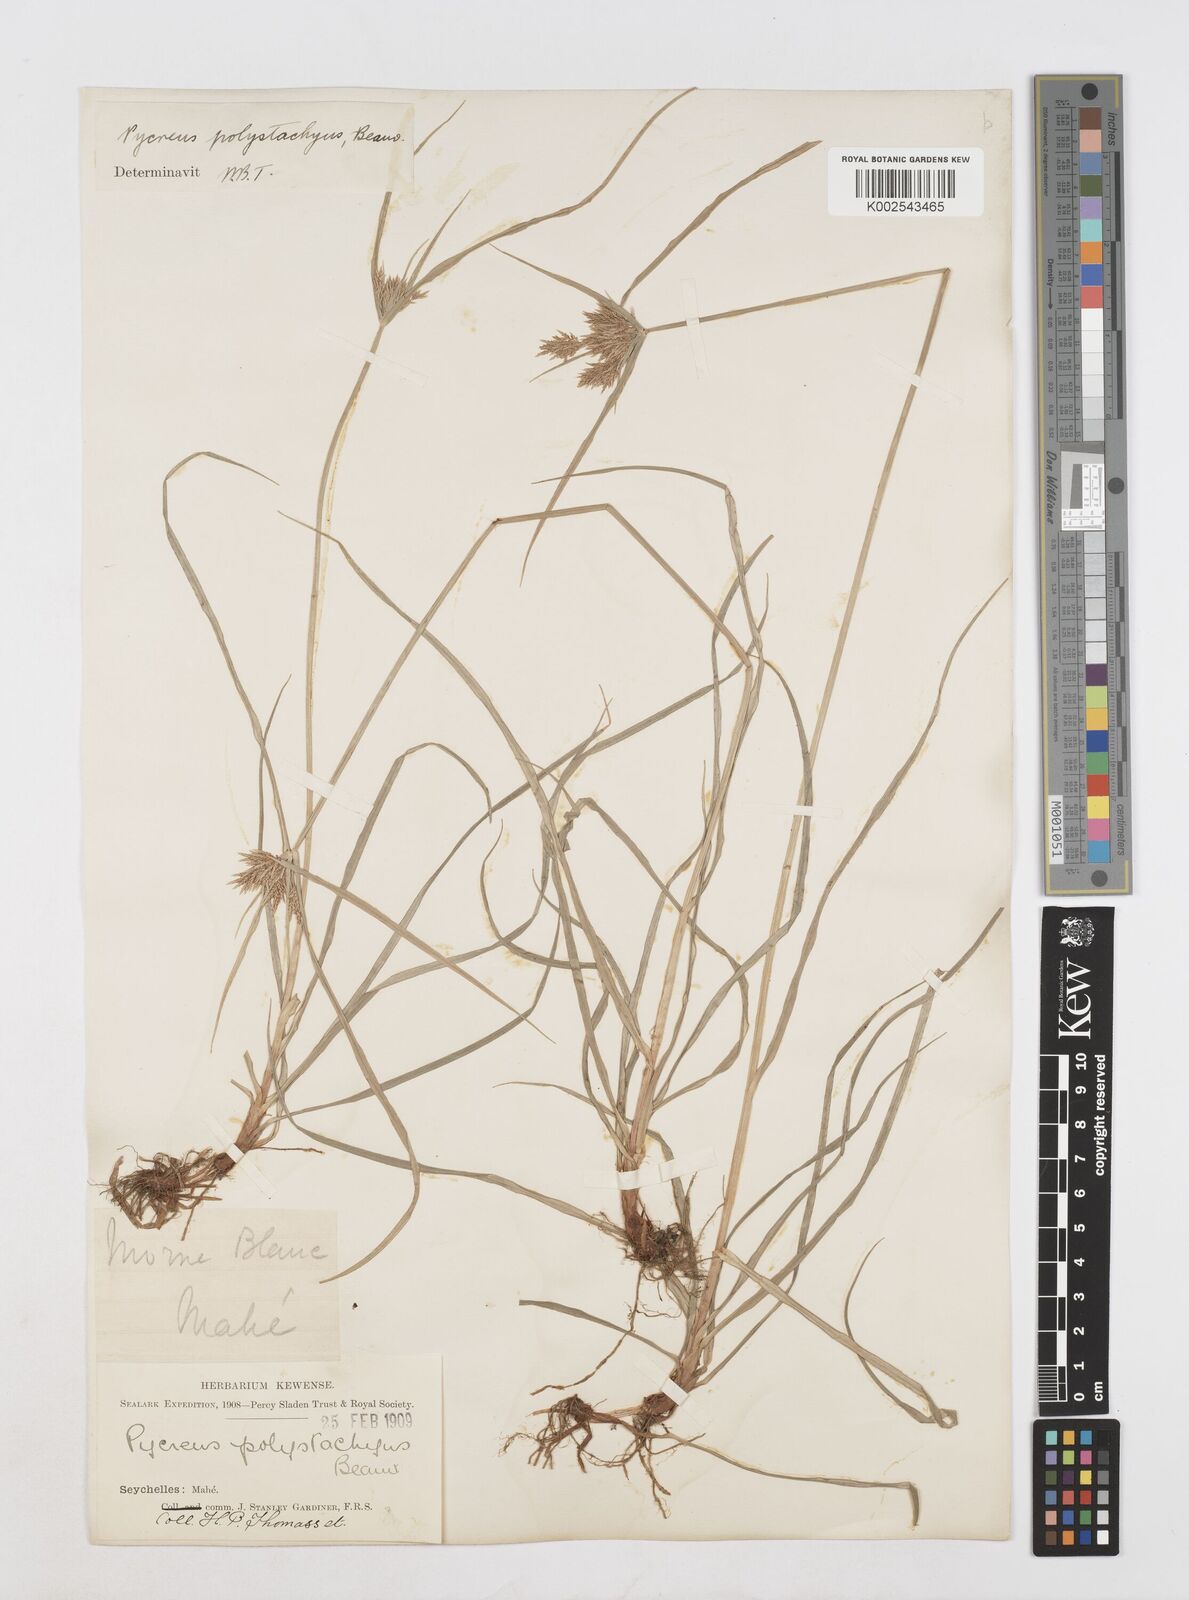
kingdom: Plantae
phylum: Tracheophyta
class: Liliopsida
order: Poales
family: Cyperaceae
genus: Cyperus
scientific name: Cyperus polystachyos
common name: Bunchy flat sedge
